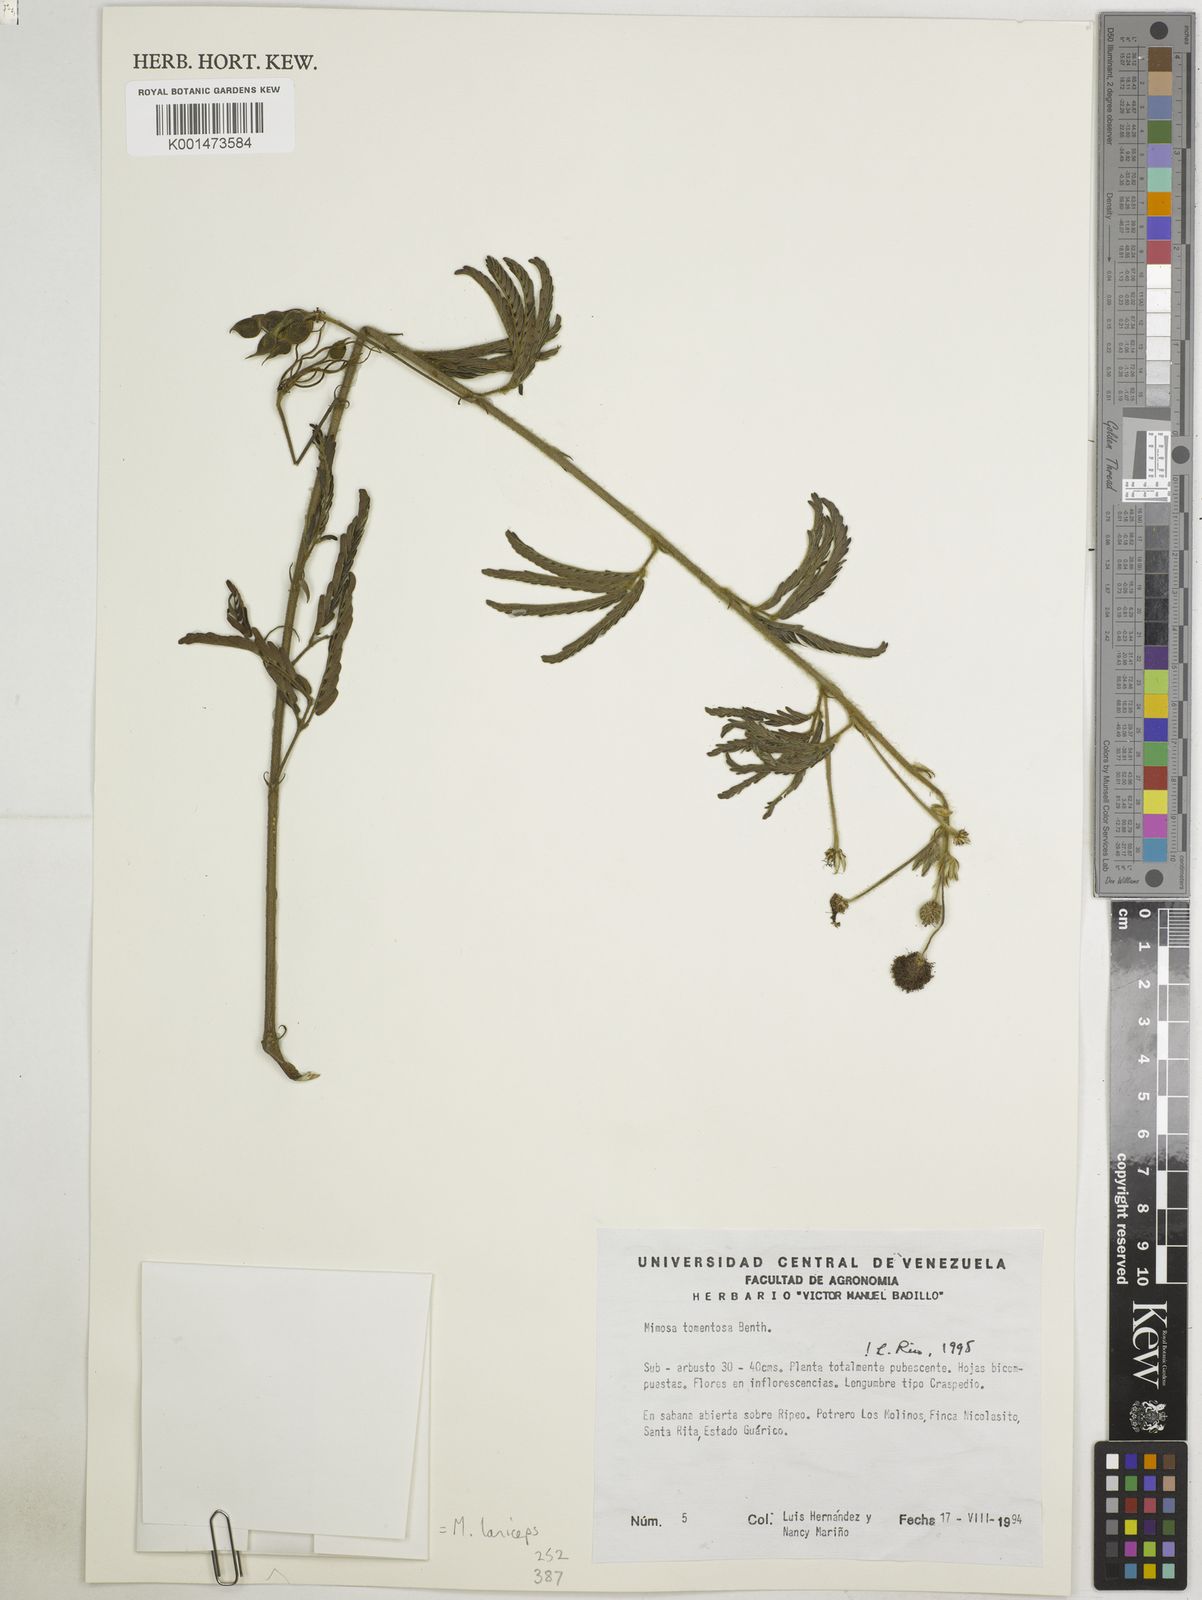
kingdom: Plantae
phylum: Tracheophyta
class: Magnoliopsida
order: Fabales
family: Fabaceae
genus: Mimosa
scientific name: Mimosa laniceps
